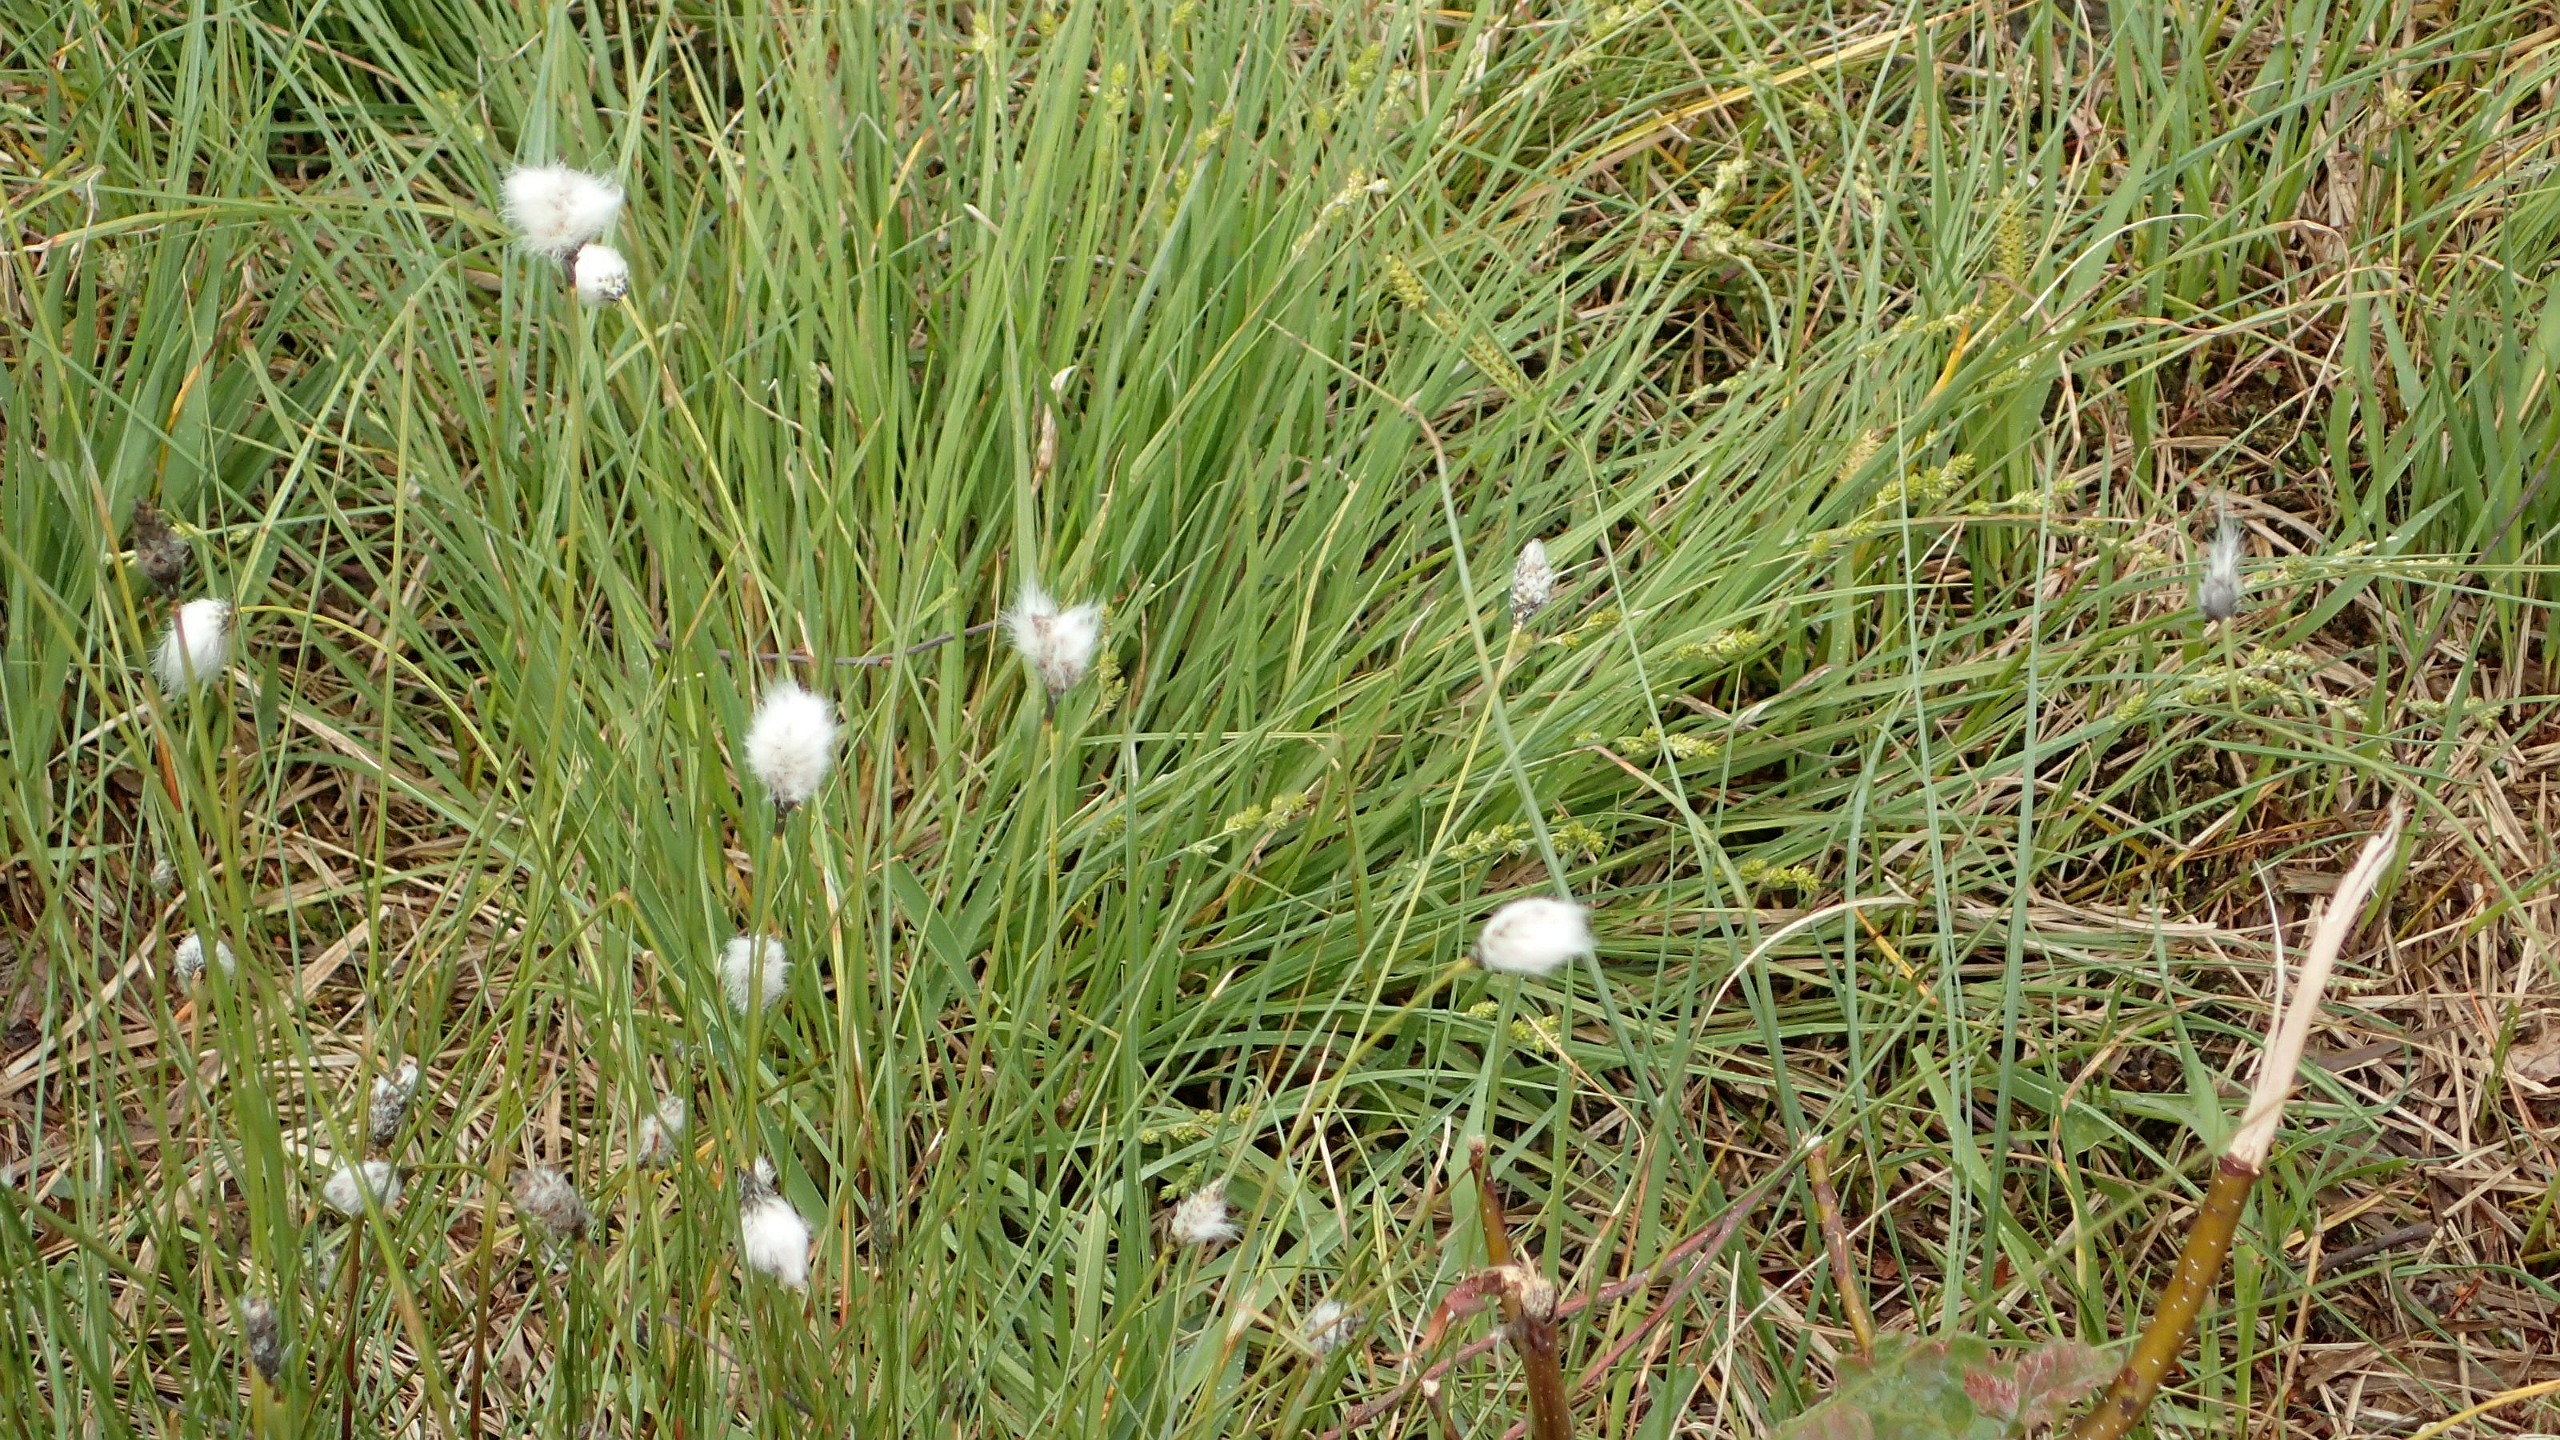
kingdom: Plantae
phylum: Tracheophyta
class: Liliopsida
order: Poales
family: Cyperaceae
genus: Eriophorum
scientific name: Eriophorum vaginatum
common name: Tue-kæruld
